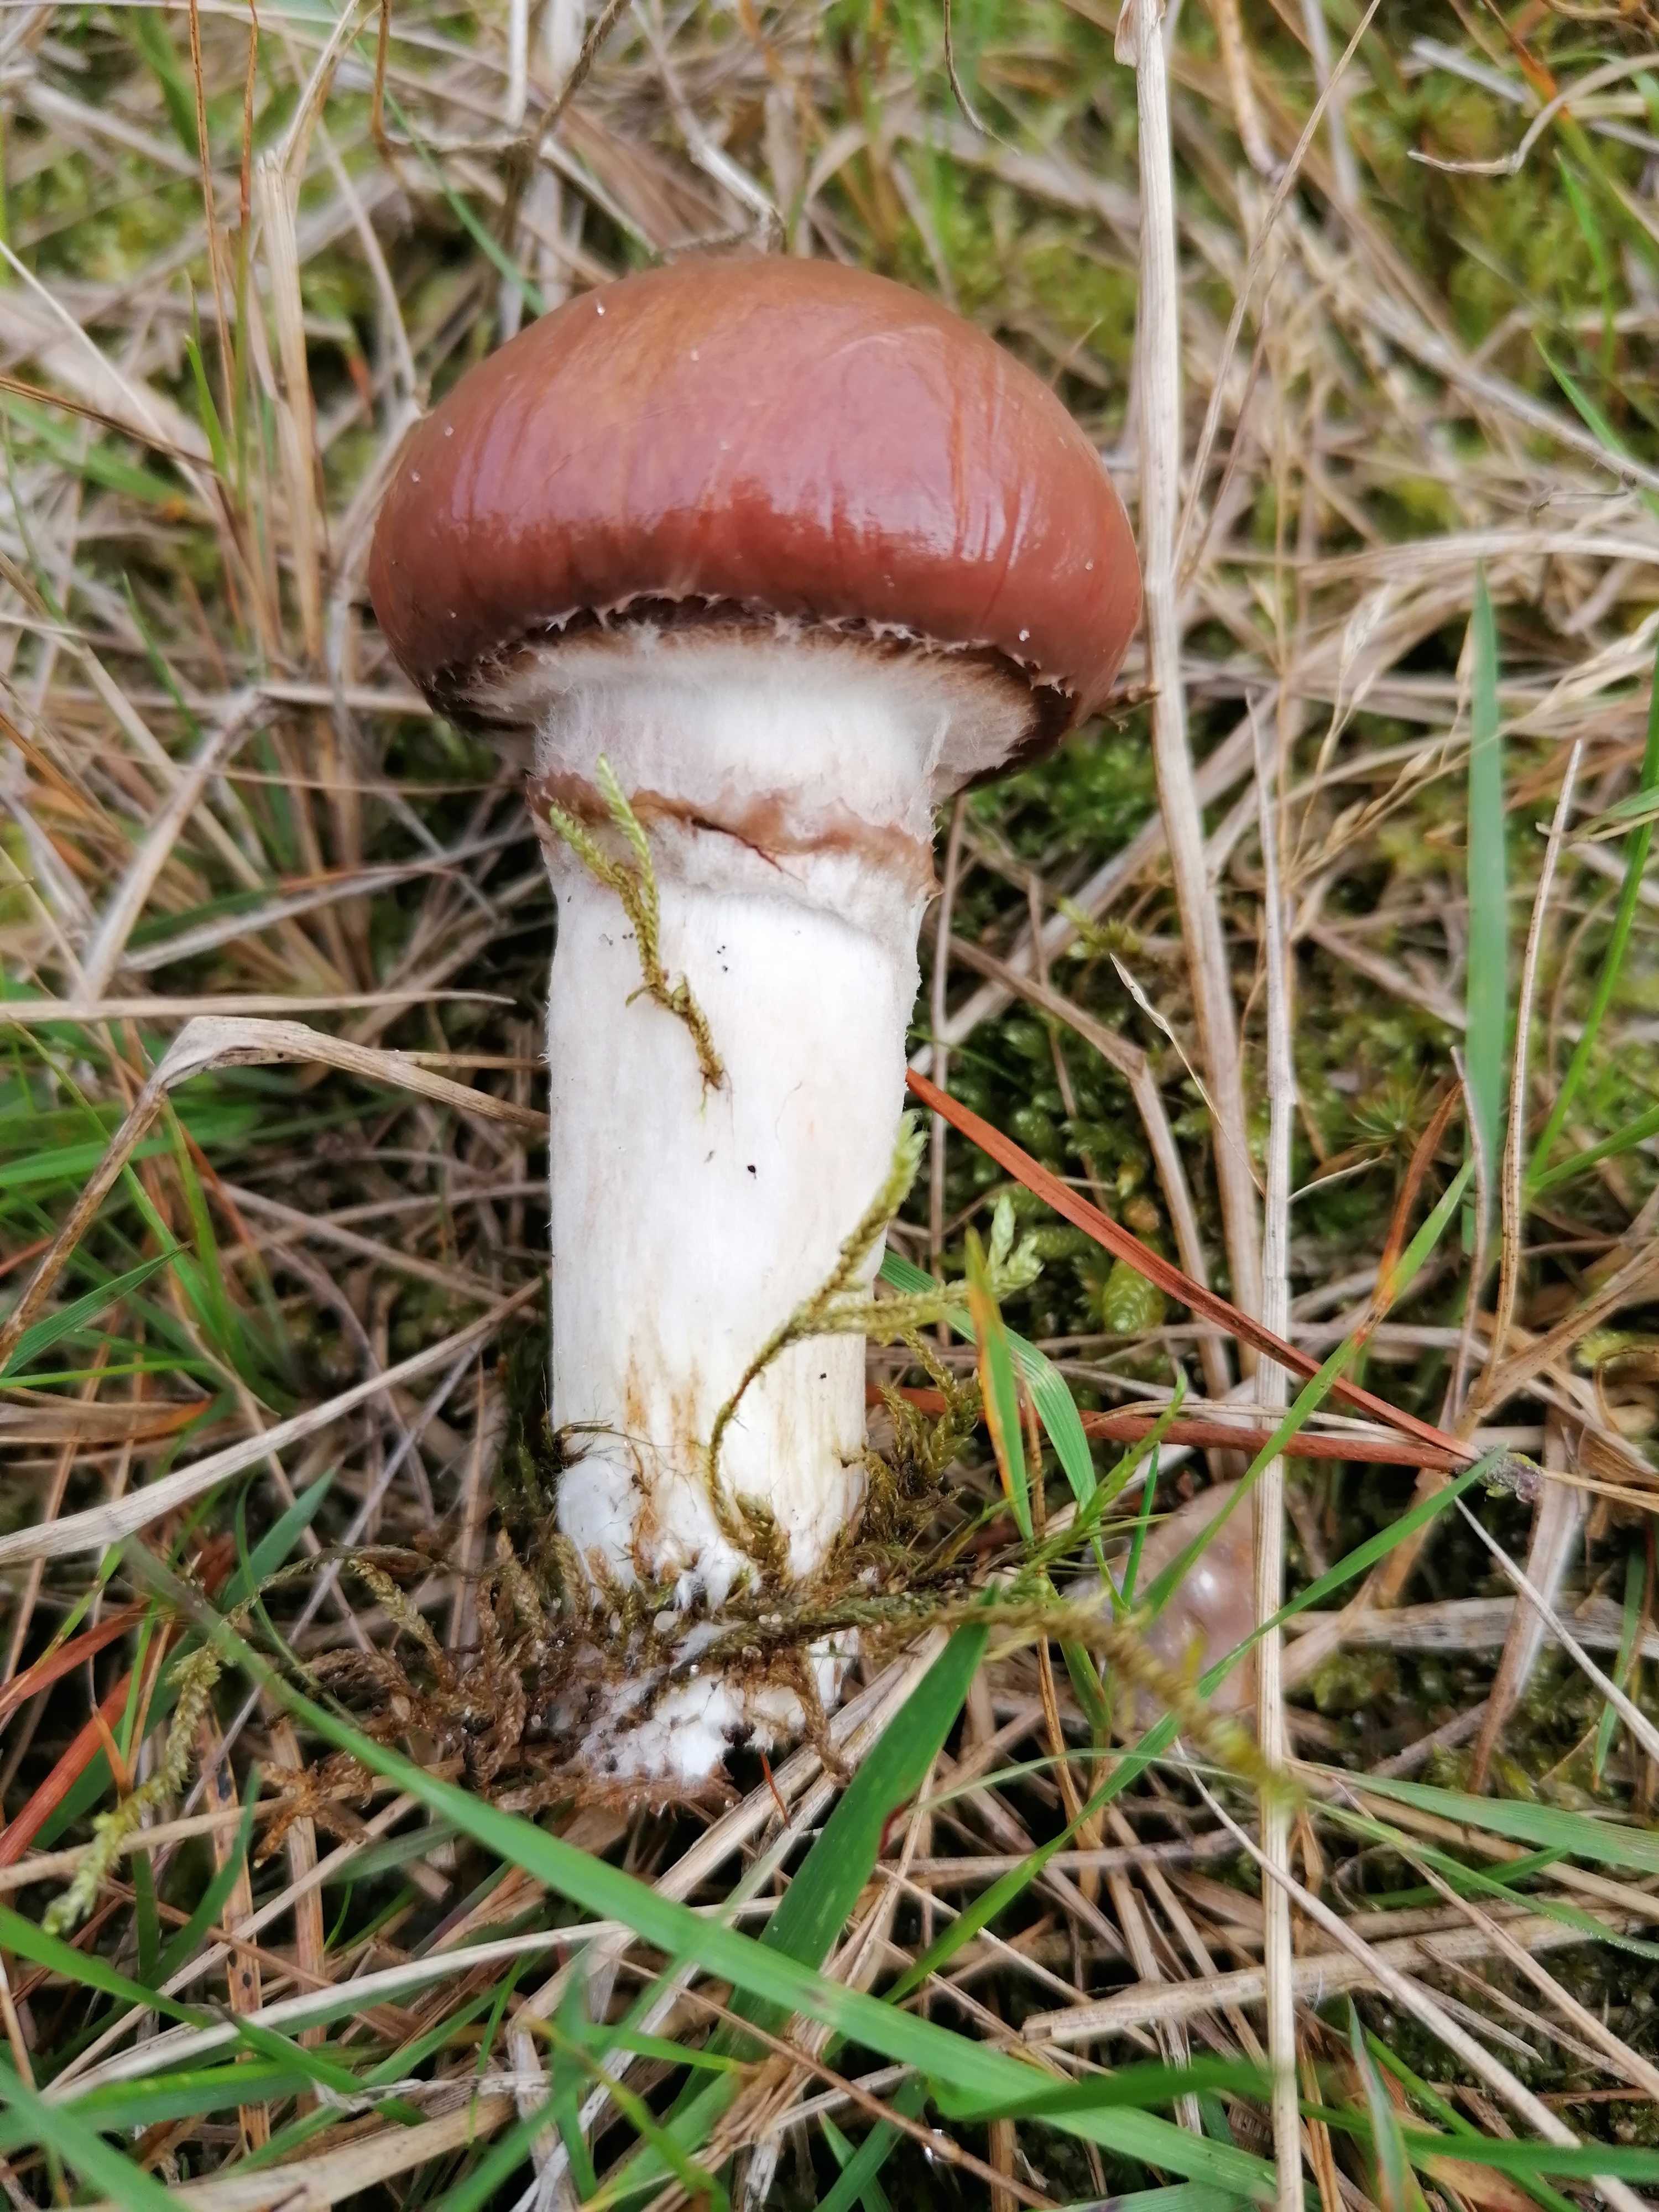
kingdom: Fungi
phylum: Basidiomycota
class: Agaricomycetes
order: Boletales
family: Suillaceae
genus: Suillus
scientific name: Suillus luteus
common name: brungul slimrørhat
